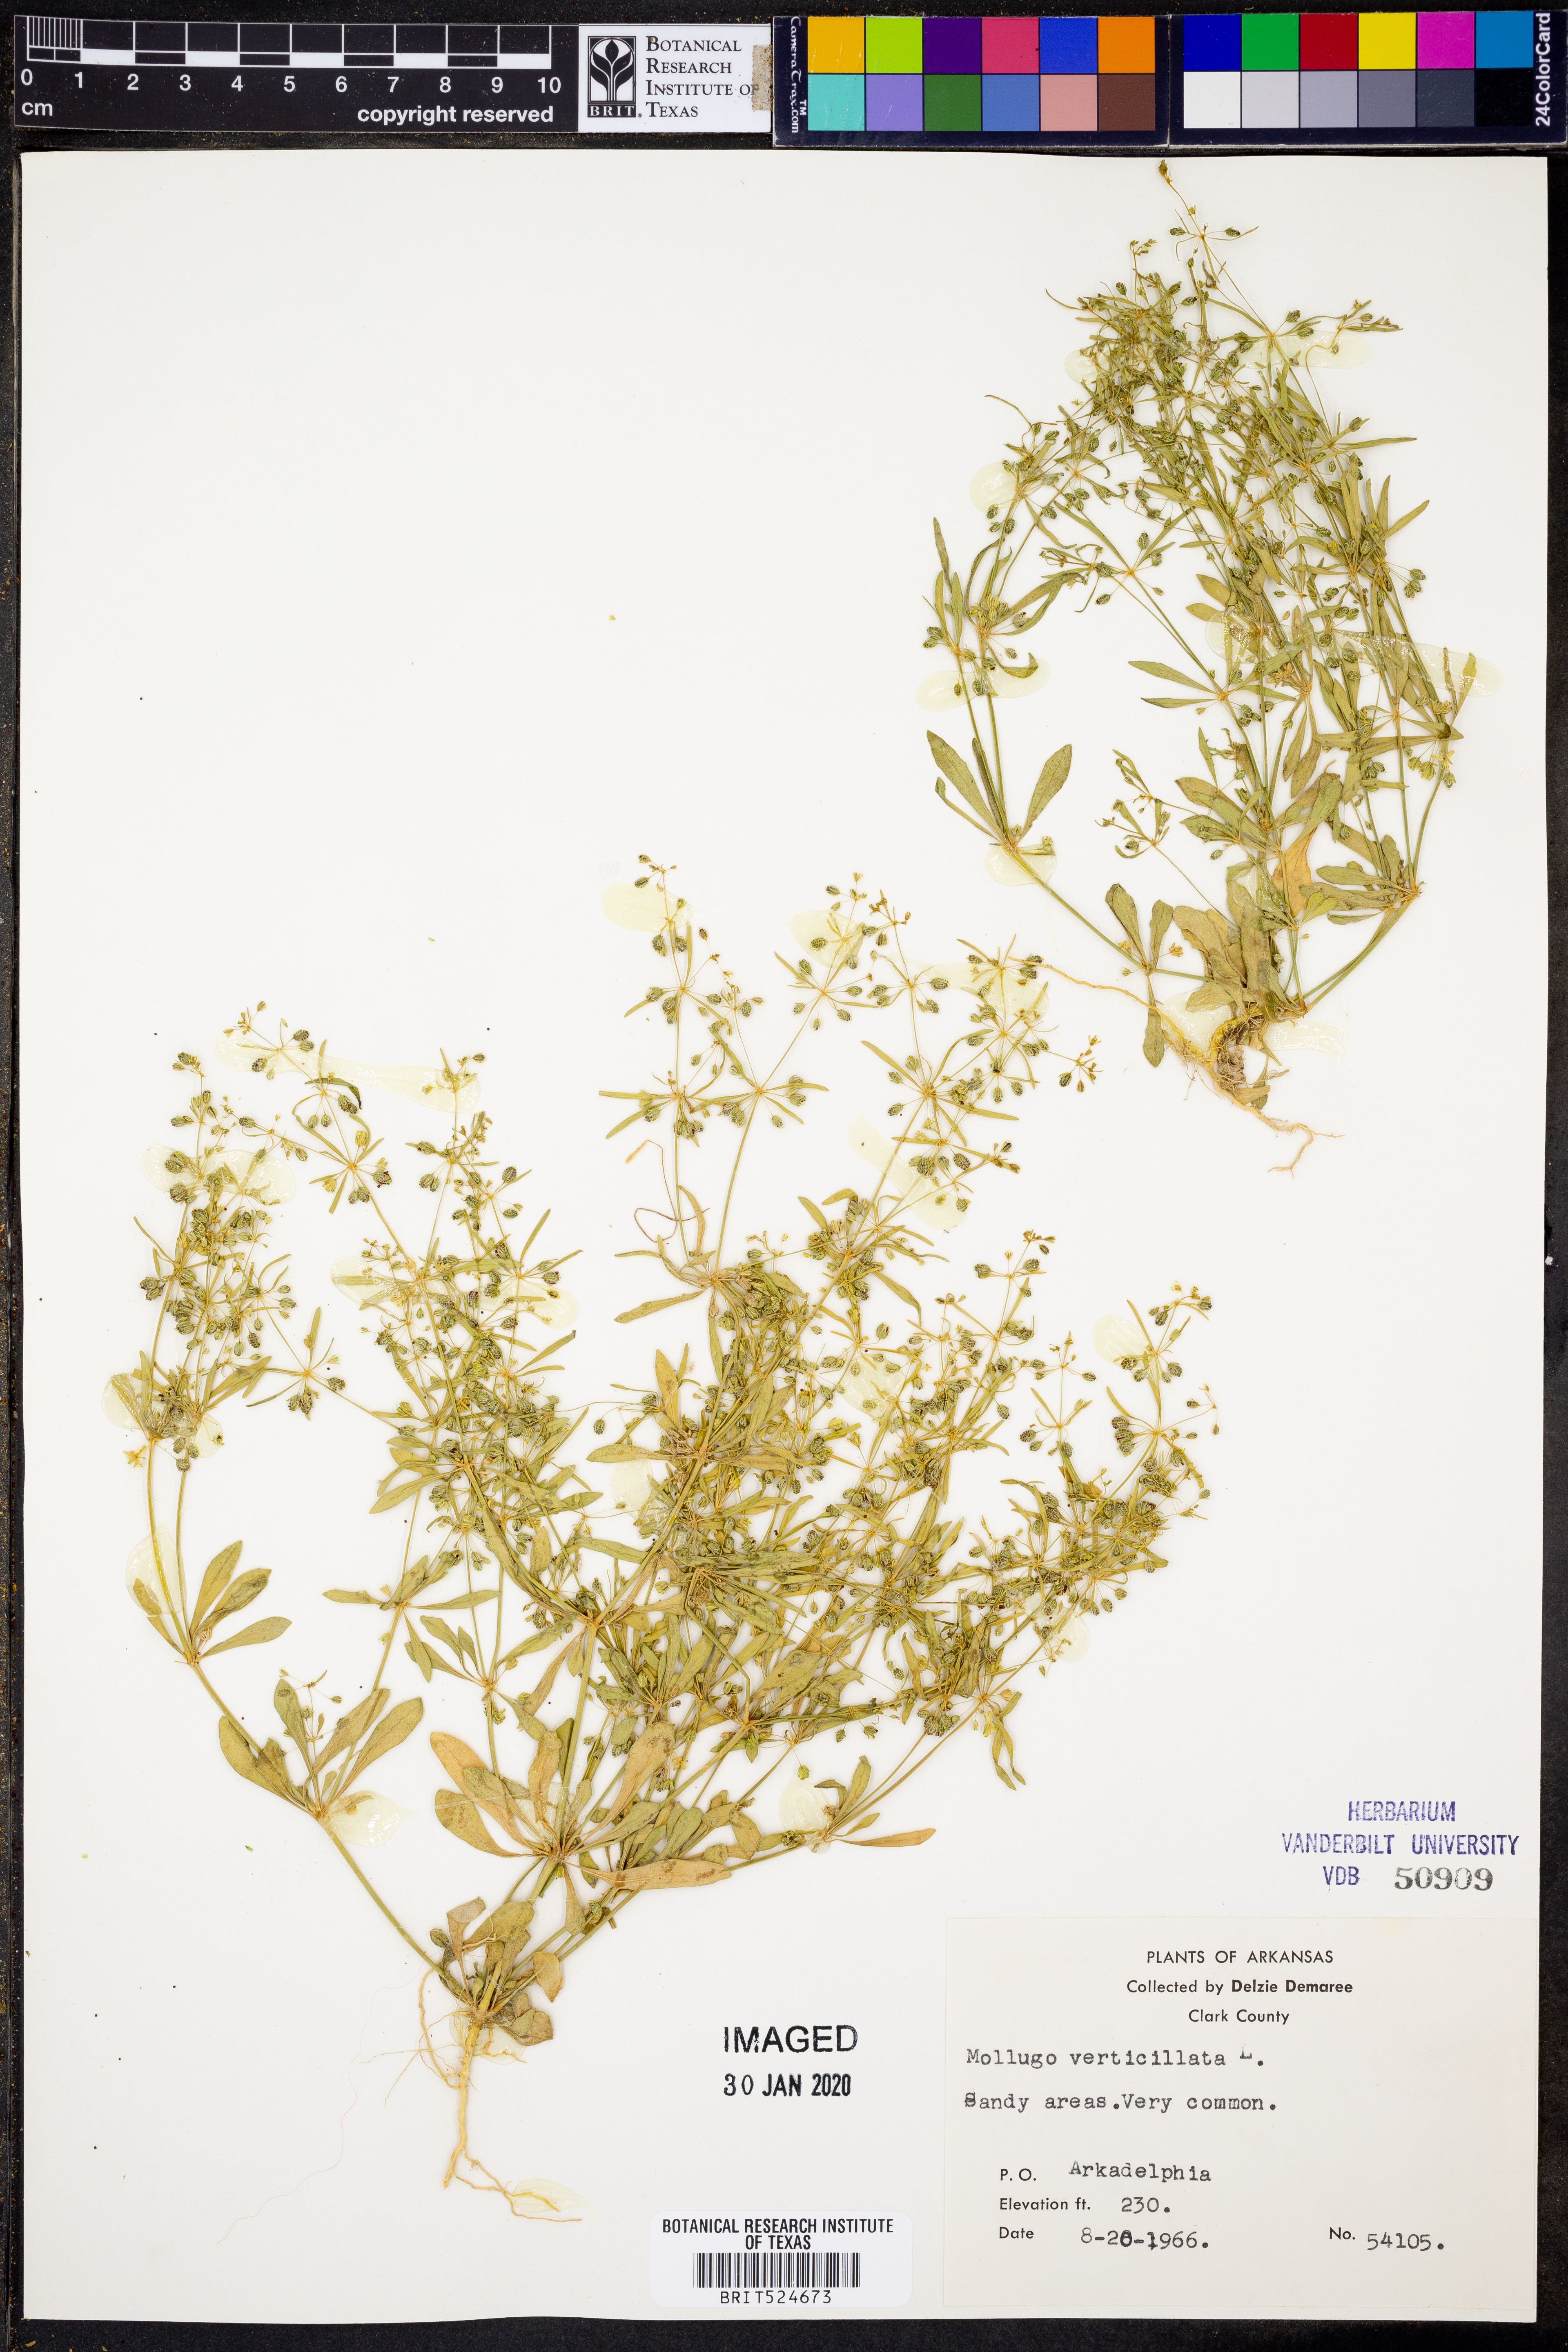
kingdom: Plantae
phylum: Tracheophyta
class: Magnoliopsida
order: Caryophyllales
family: Molluginaceae
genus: Mollugo
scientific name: Mollugo verticillata
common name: Green carpetweed
